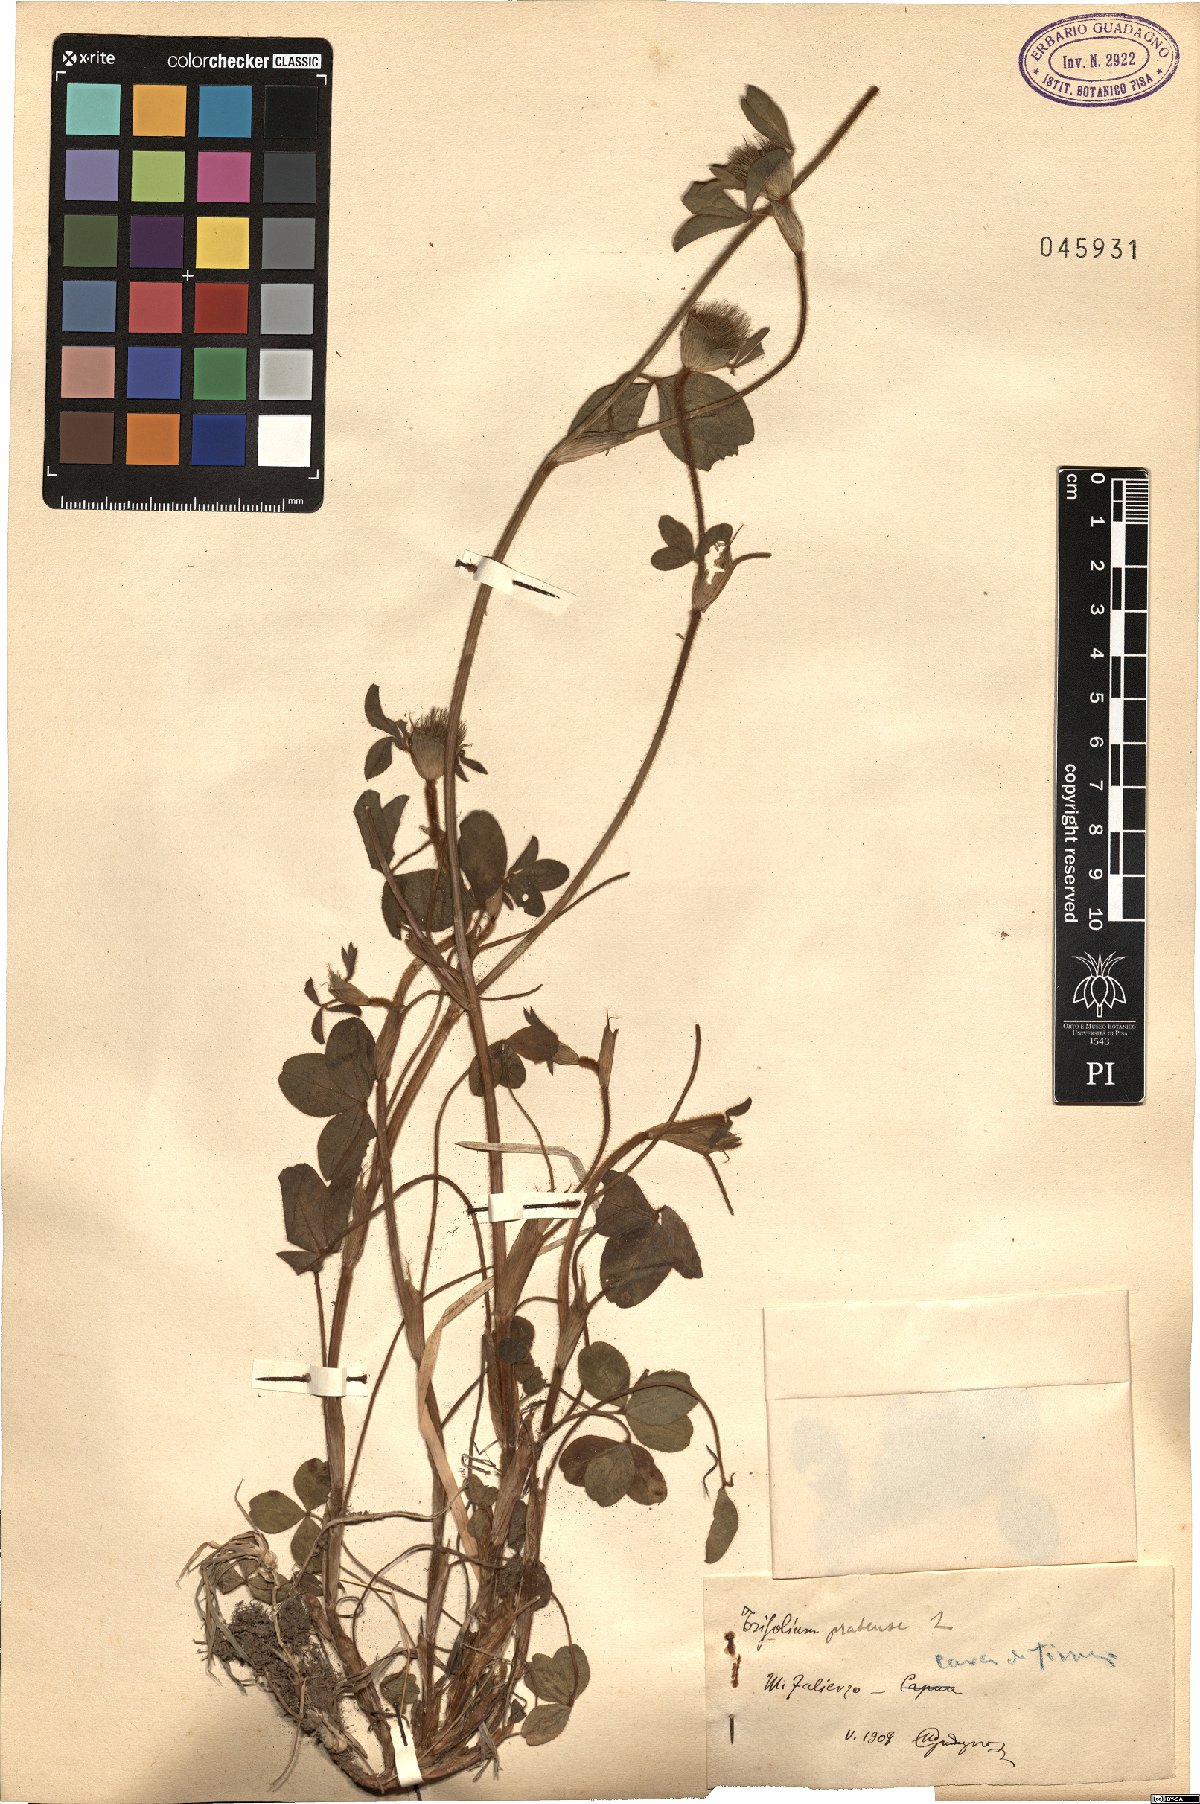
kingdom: Plantae
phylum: Tracheophyta
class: Magnoliopsida
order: Fabales
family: Fabaceae
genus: Trifolium
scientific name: Trifolium pratense
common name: Red clover
